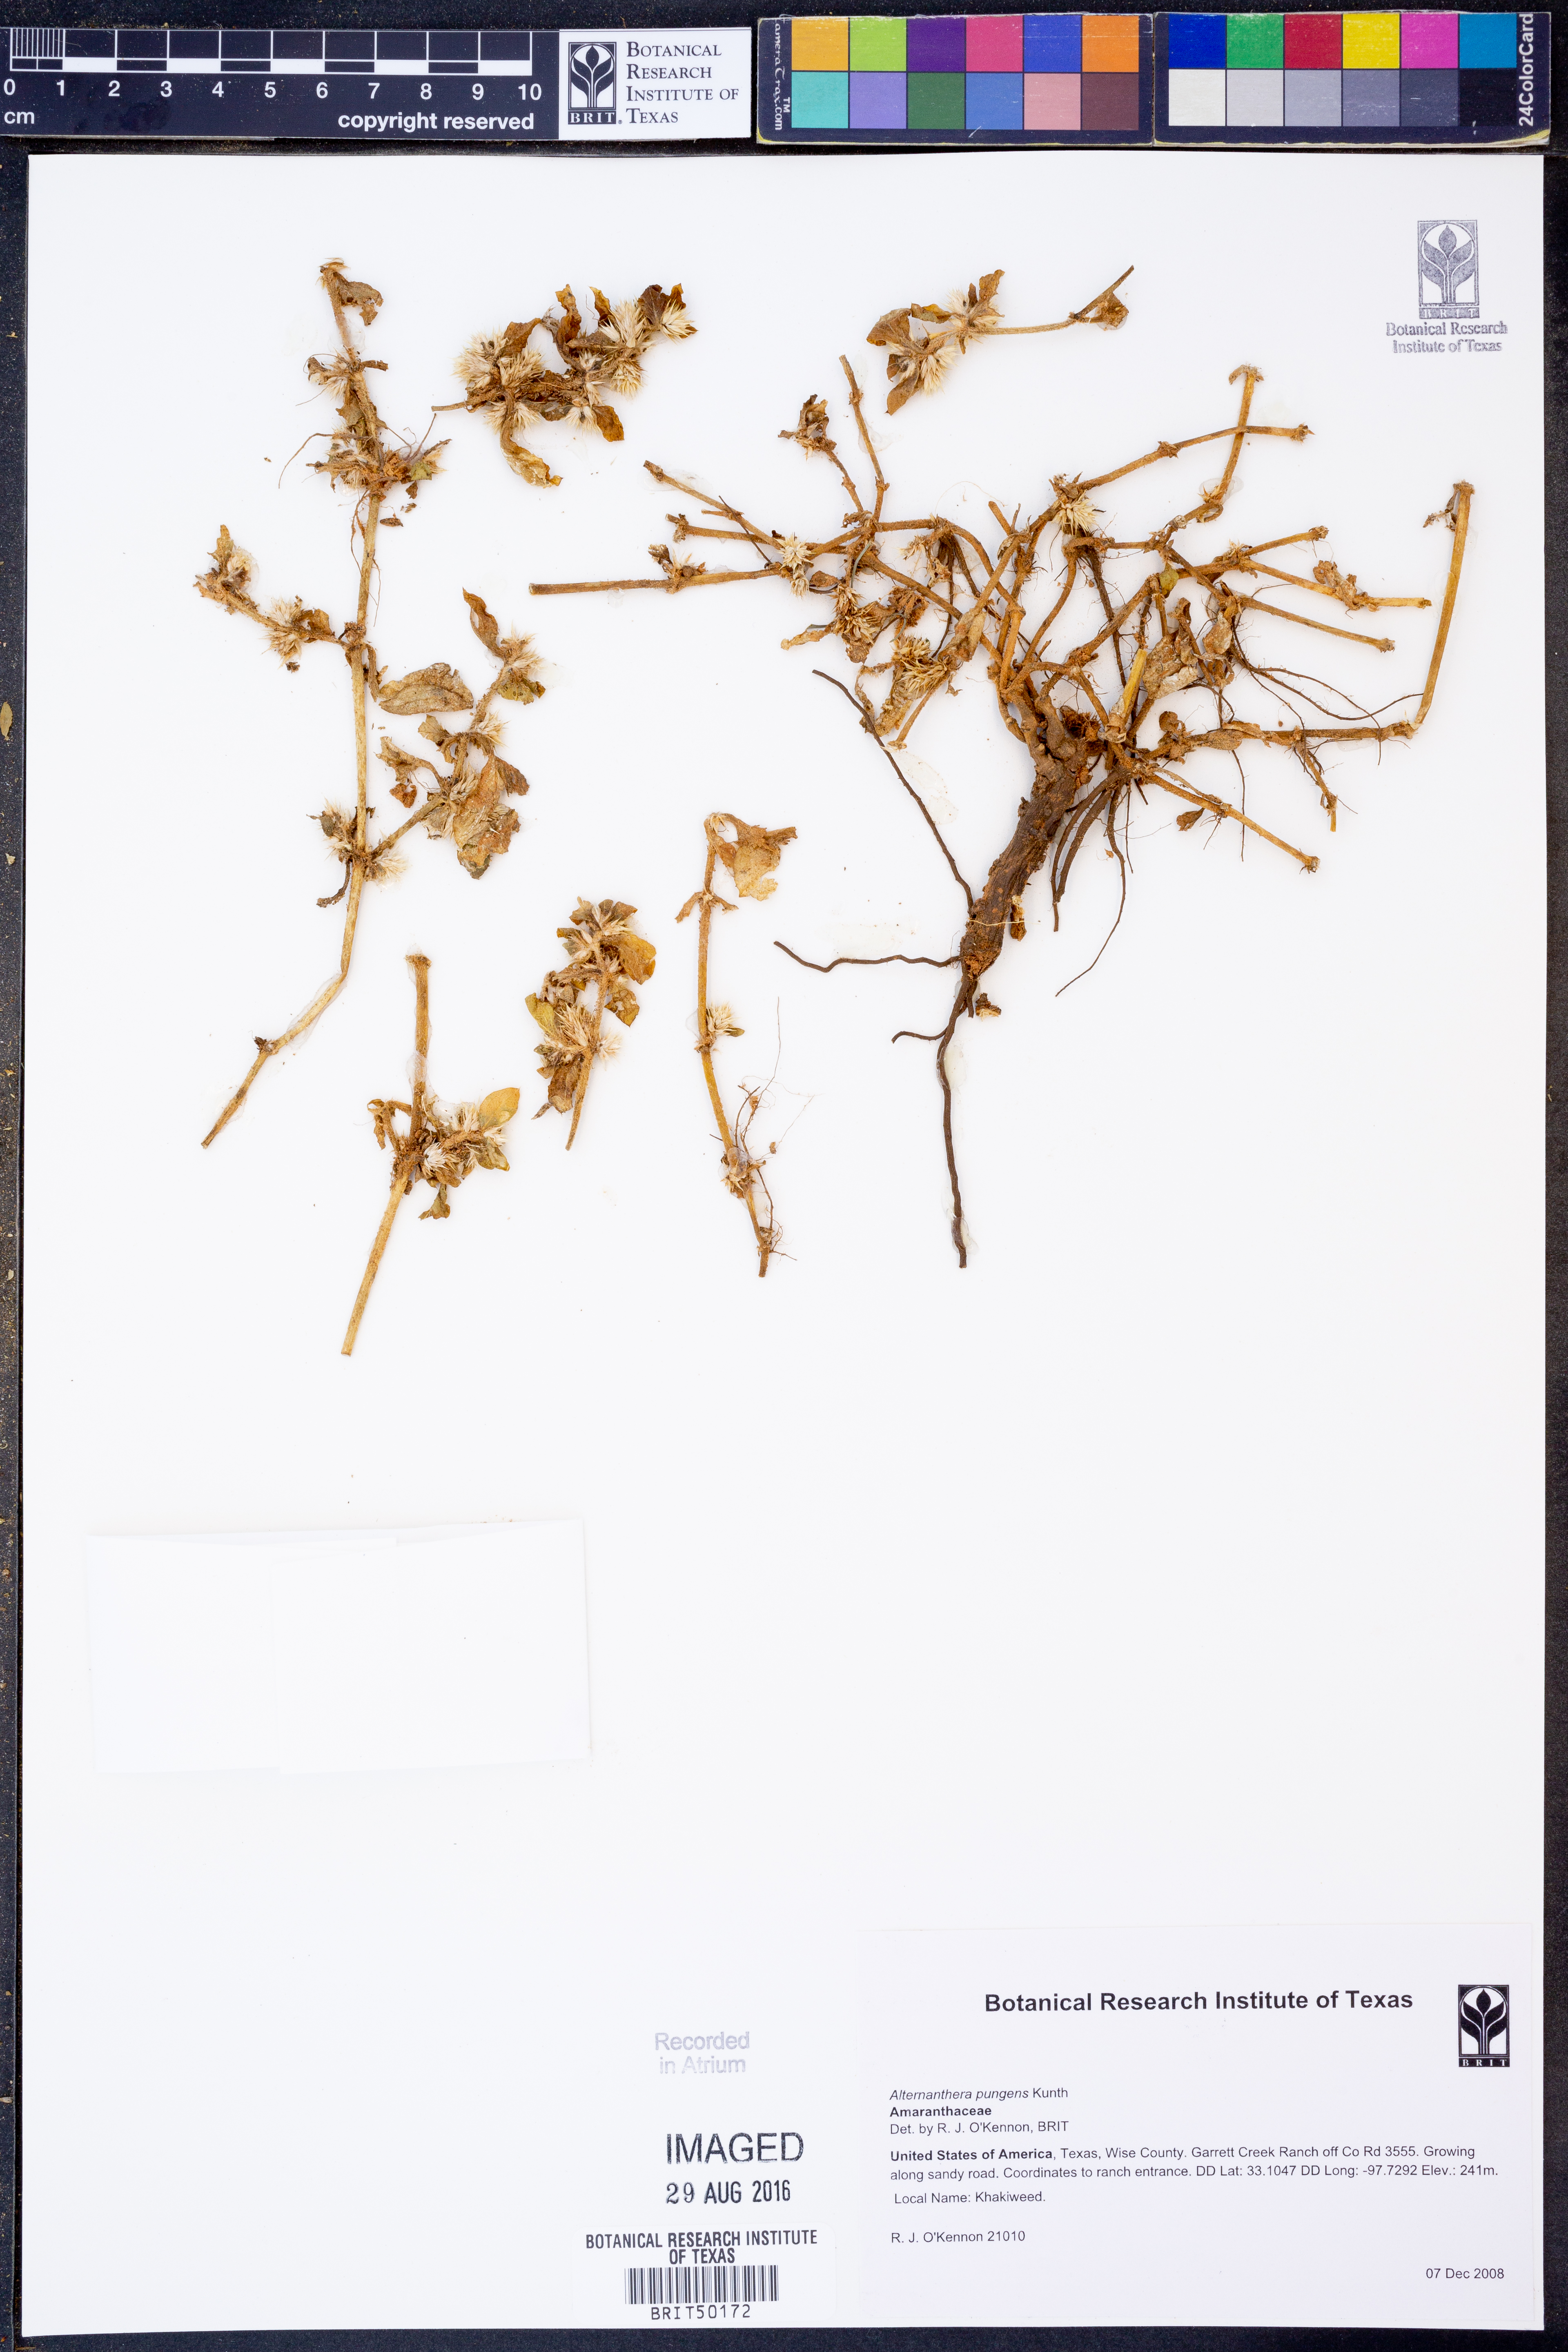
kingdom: Plantae
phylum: Tracheophyta
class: Magnoliopsida
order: Caryophyllales
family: Amaranthaceae
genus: Alternanthera
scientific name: Alternanthera pungens
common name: Khakiweed
